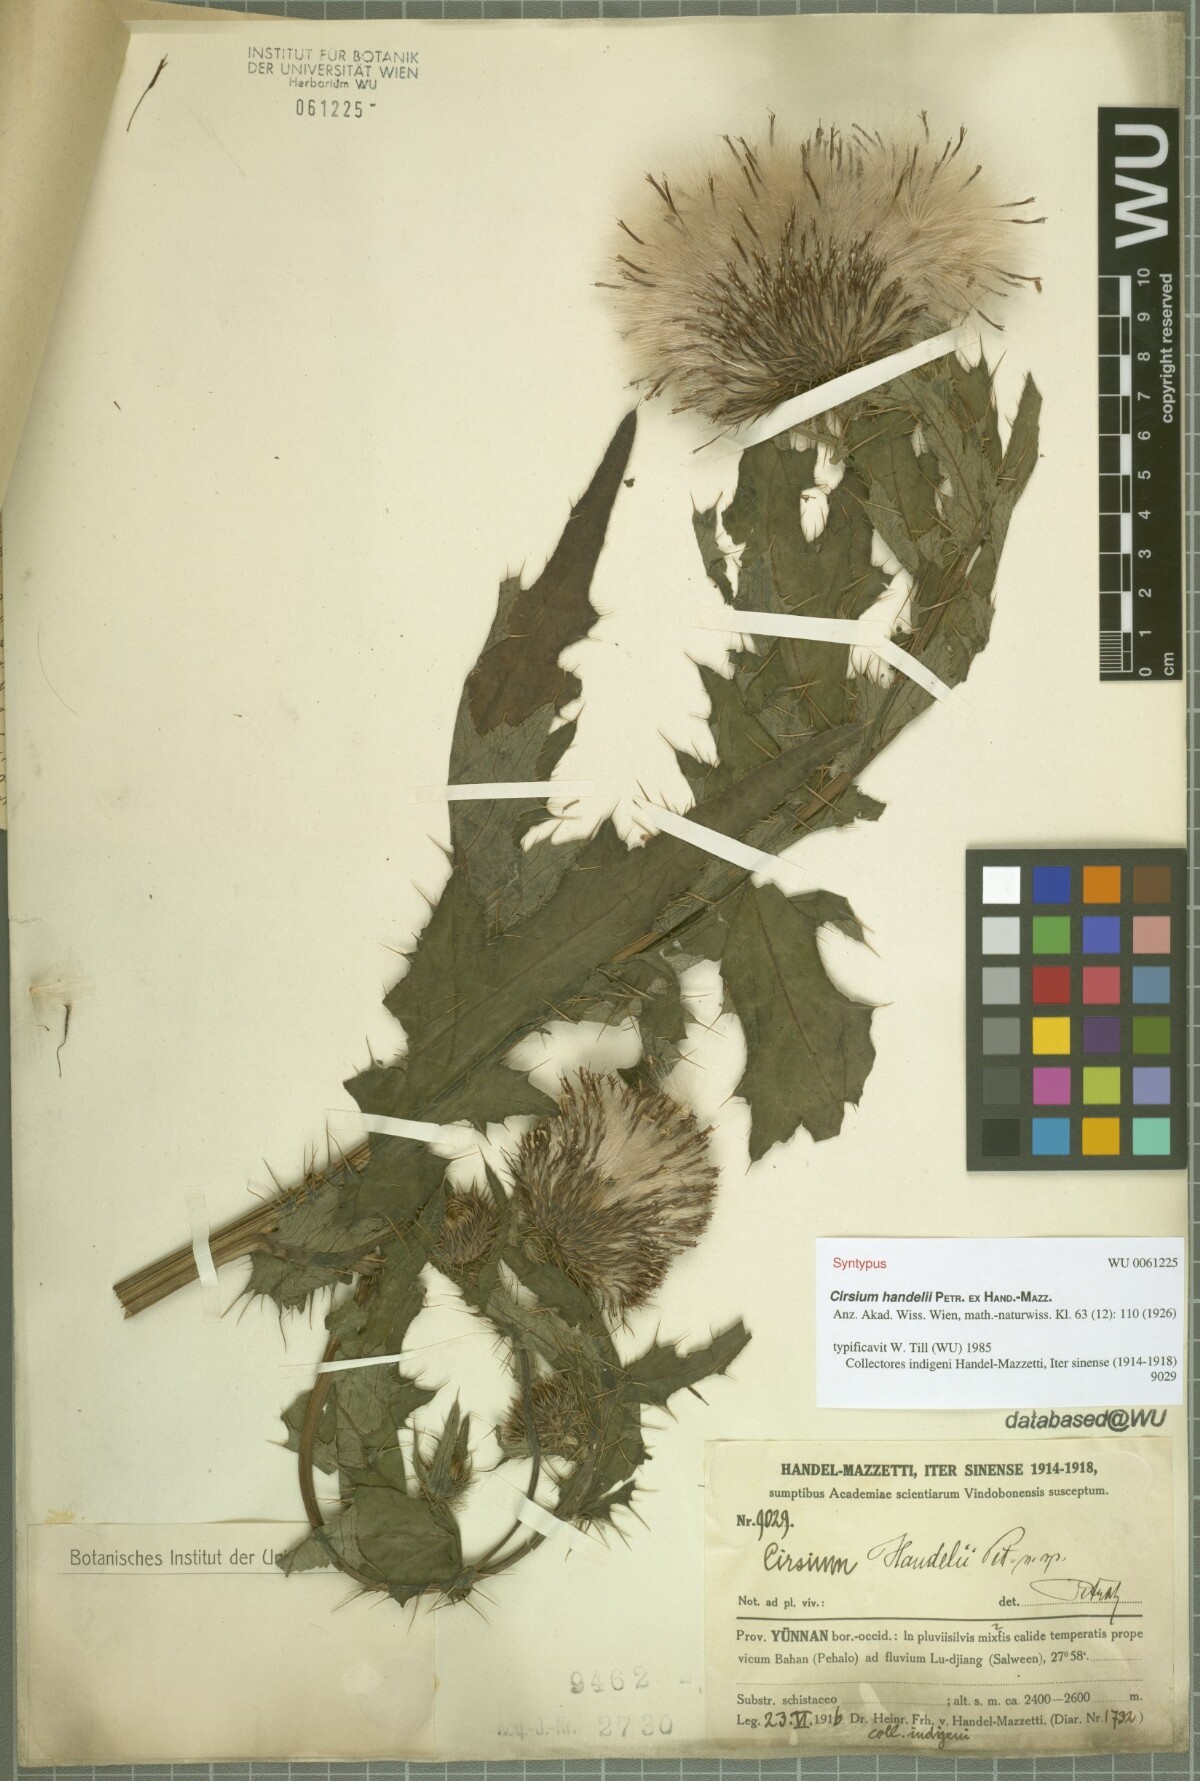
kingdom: Plantae
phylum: Tracheophyta
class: Magnoliopsida
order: Asterales
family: Asteraceae
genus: Cirsium
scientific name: Cirsium handelii
